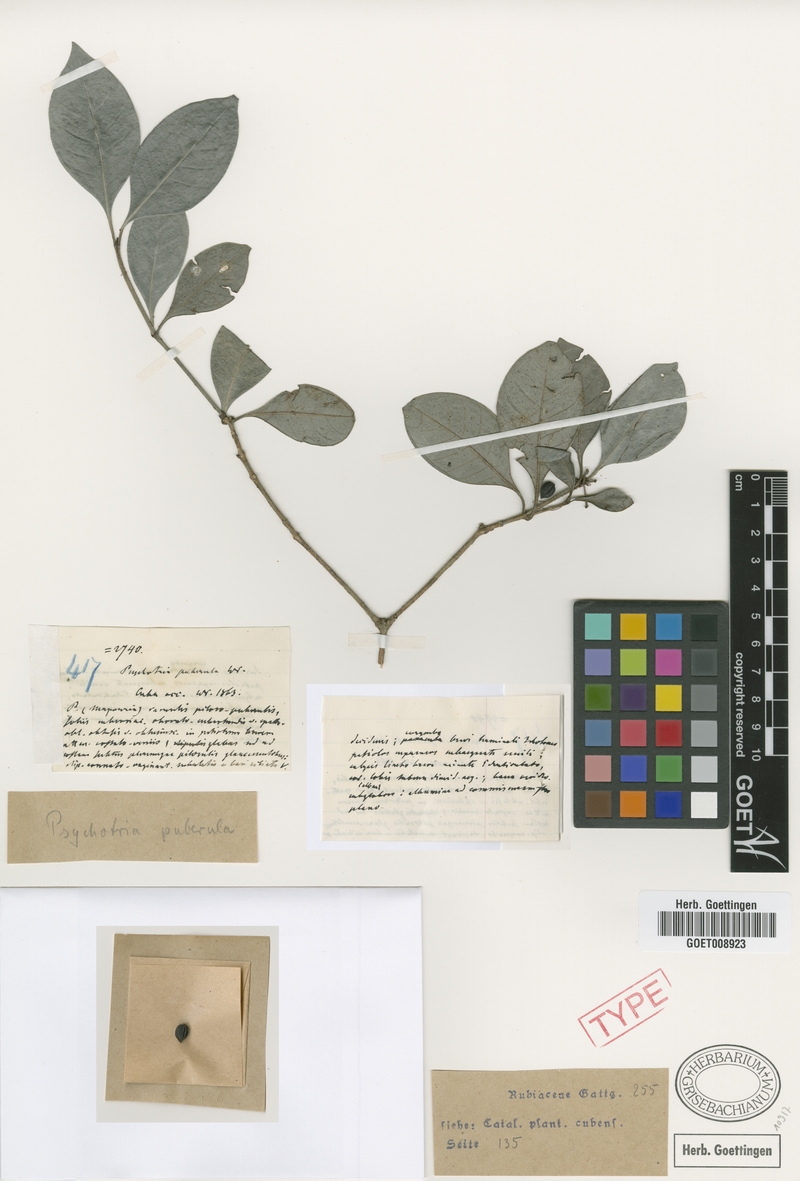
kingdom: Plantae
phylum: Tracheophyta
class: Magnoliopsida
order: Gentianales
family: Rubiaceae
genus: Psychotria
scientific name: Psychotria obovalis
